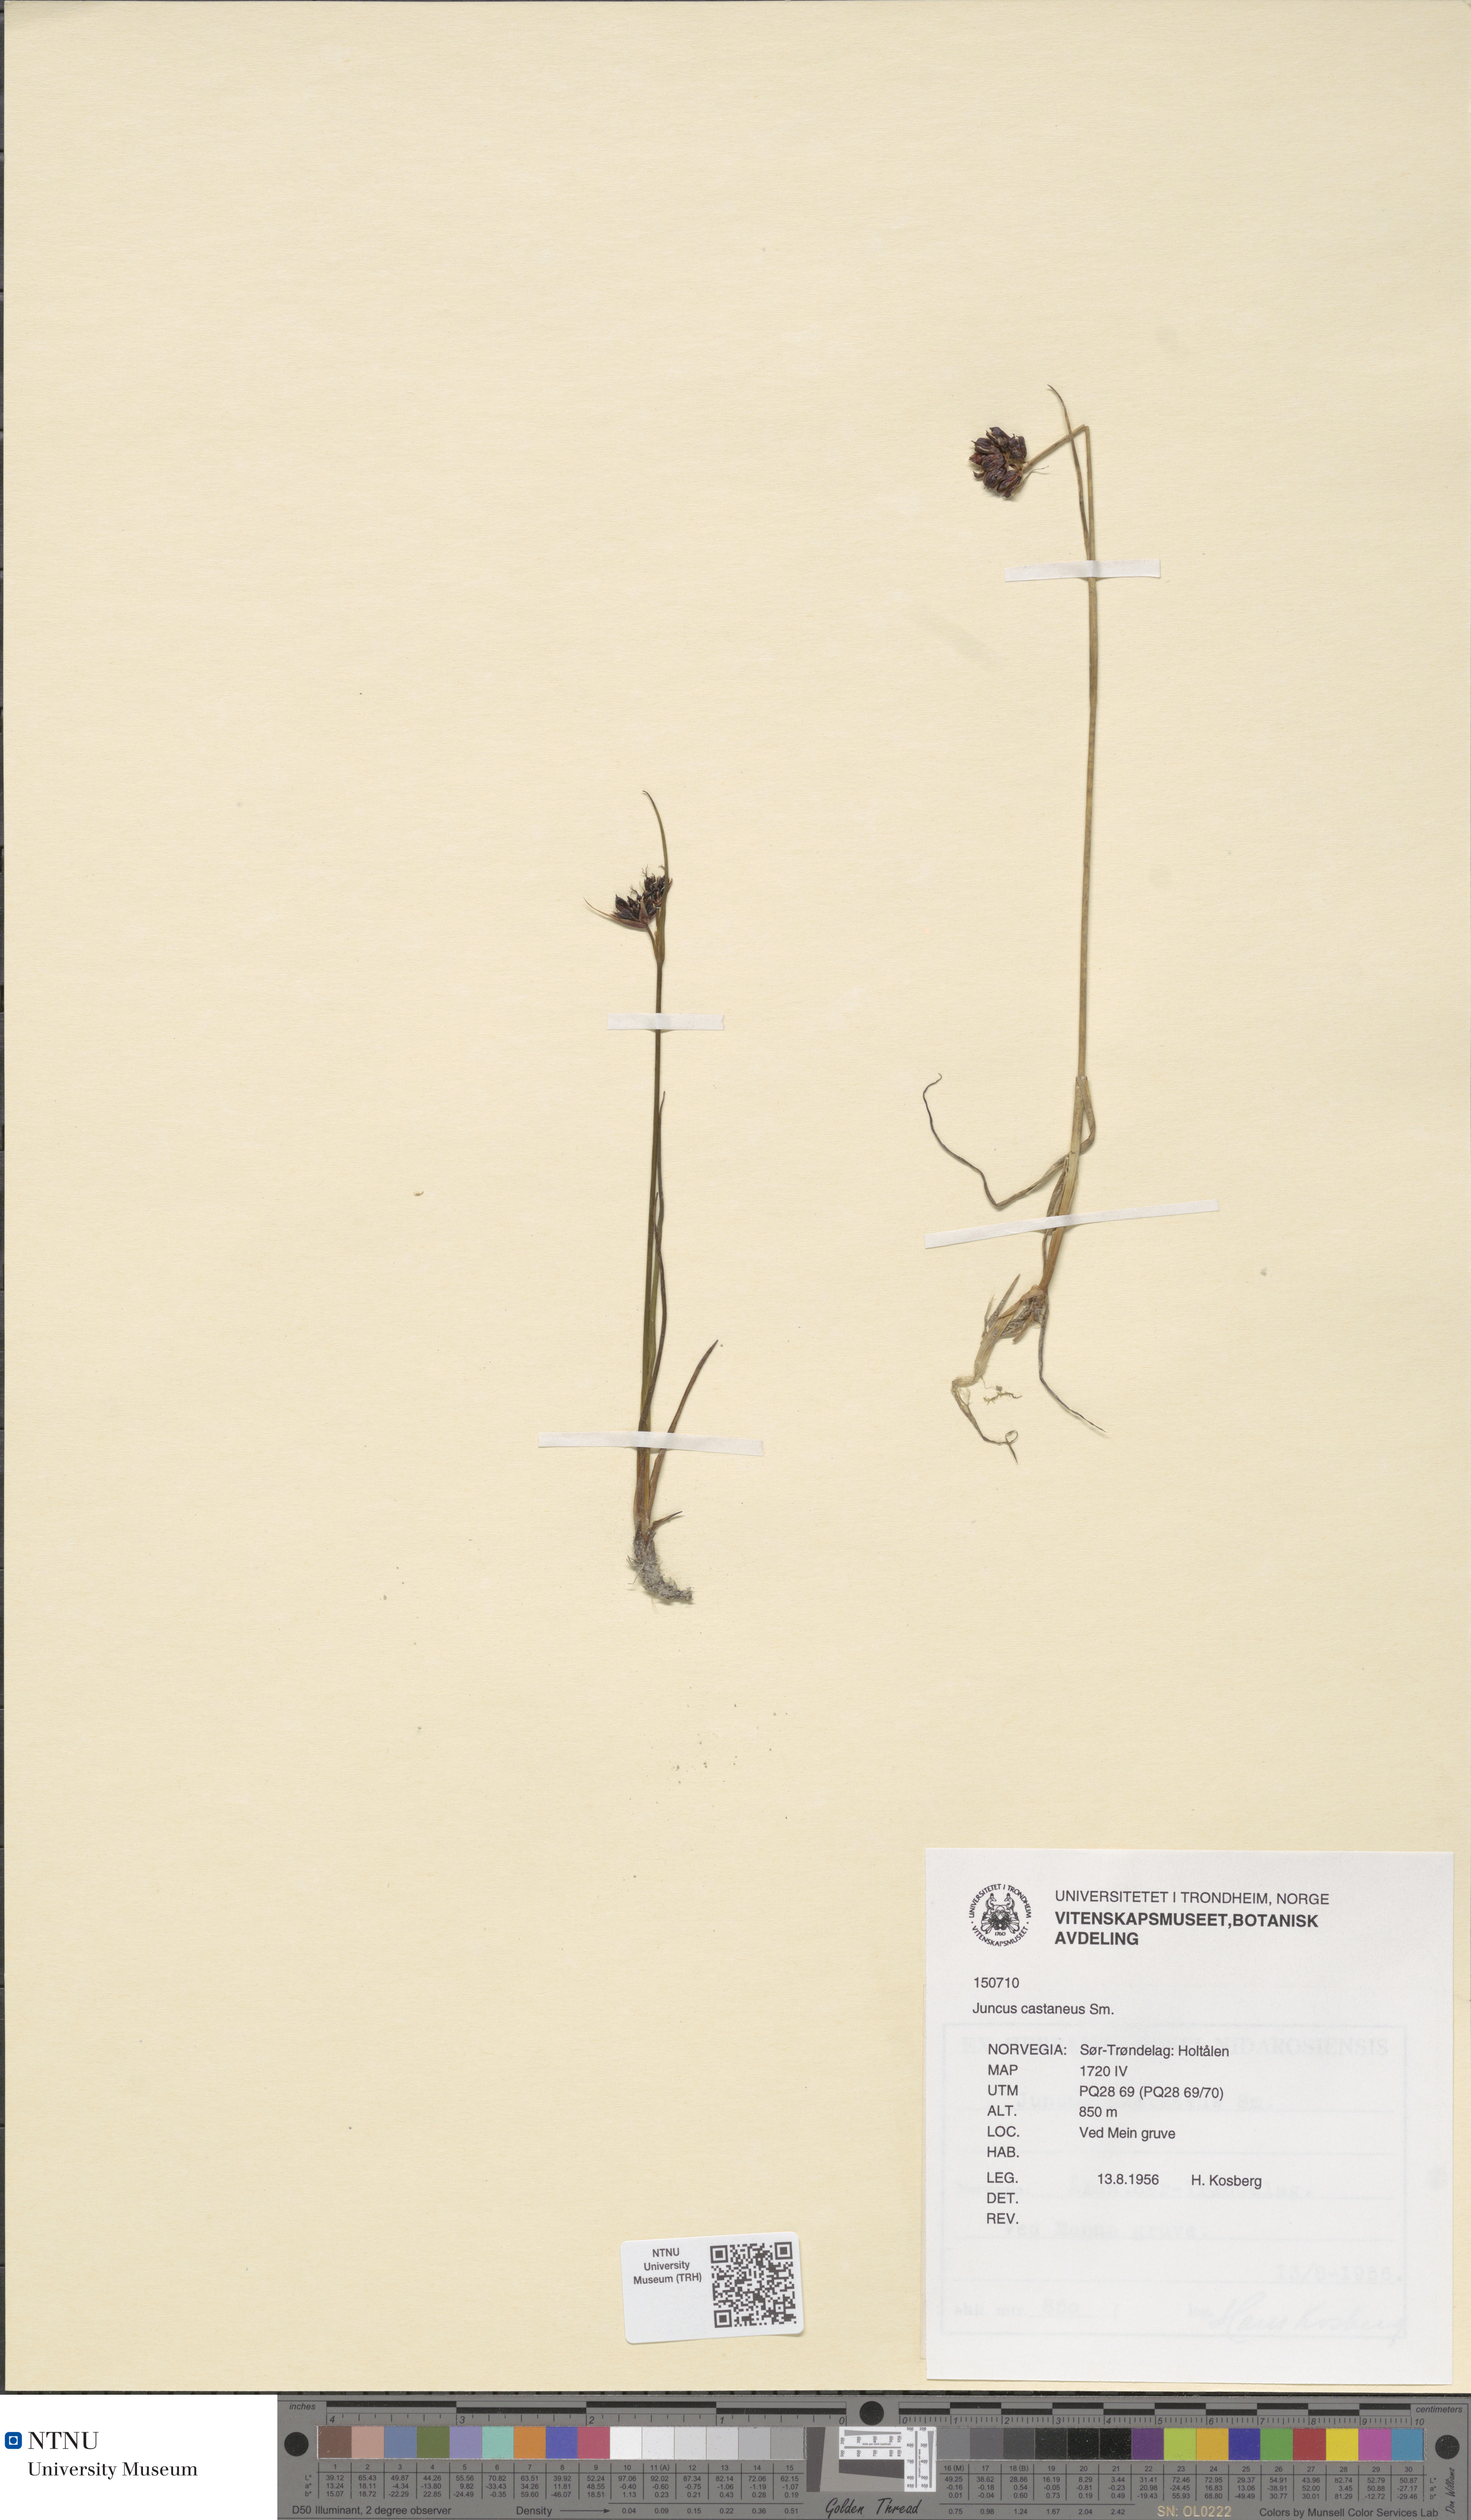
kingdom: Plantae
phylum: Tracheophyta
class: Liliopsida
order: Poales
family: Juncaceae
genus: Juncus
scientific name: Juncus castaneus
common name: Chestnut rush
